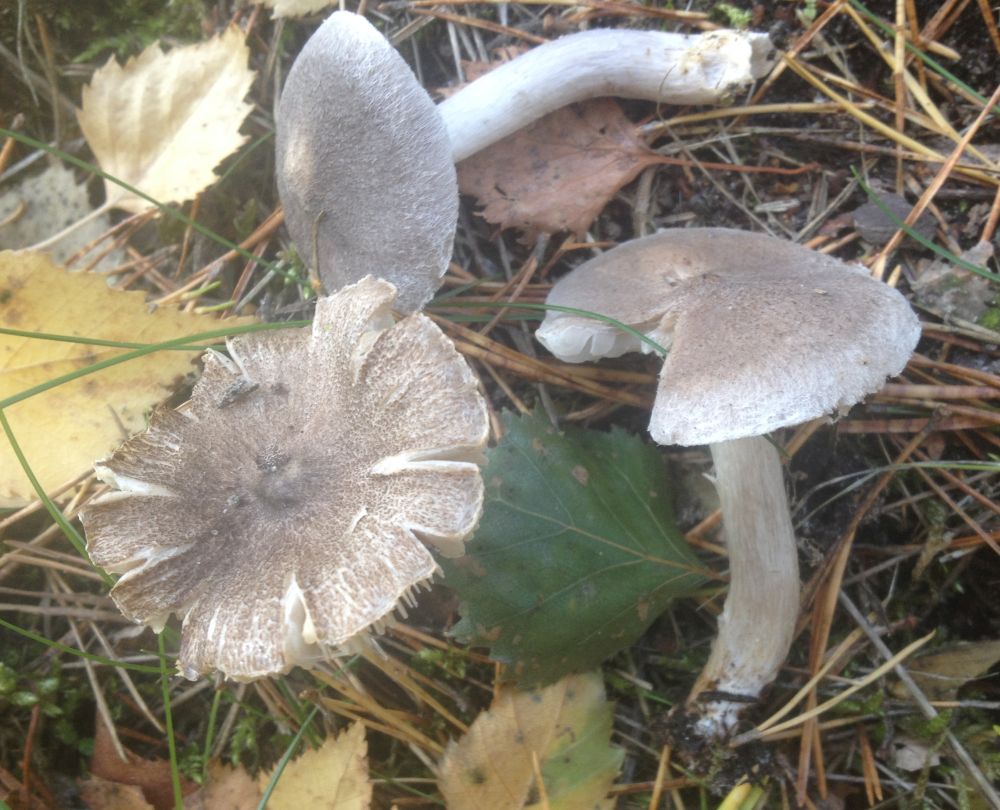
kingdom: Fungi
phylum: Basidiomycota
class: Agaricomycetes
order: Agaricales
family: Tricholomataceae
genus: Tricholoma
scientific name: Tricholoma argyraceum
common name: spids ridderhat
